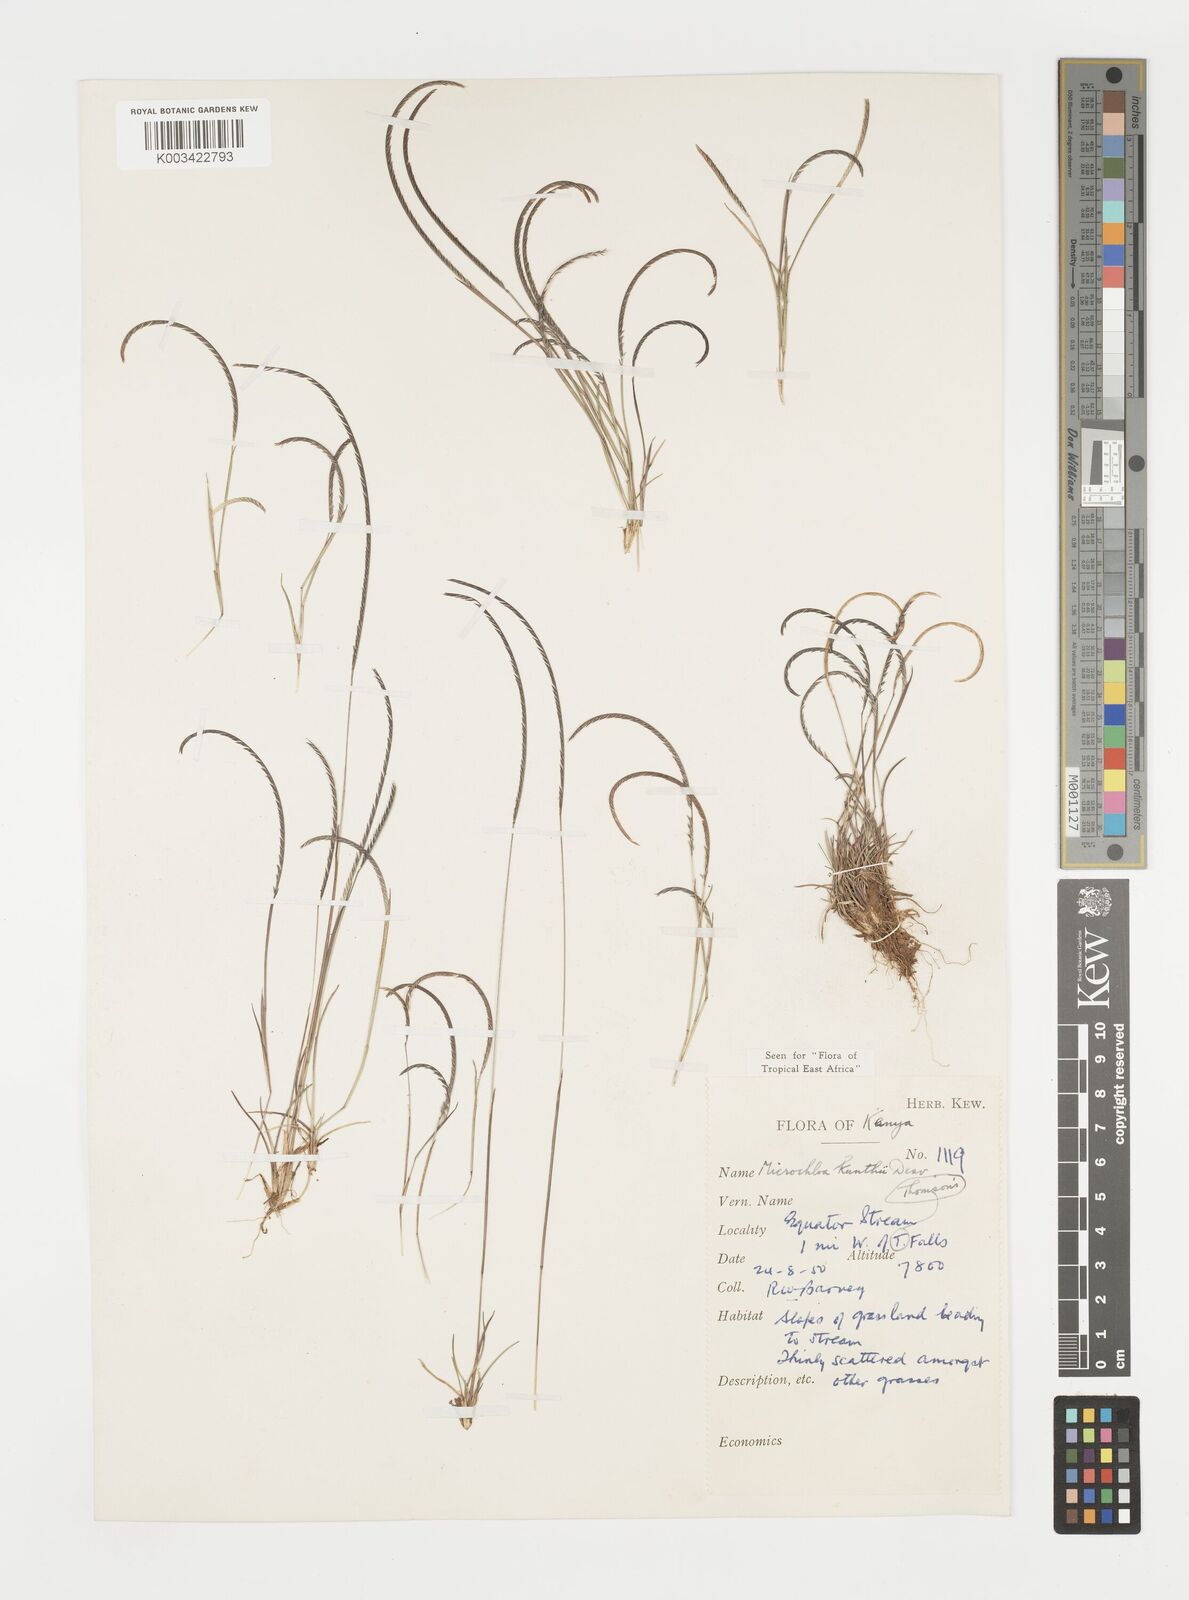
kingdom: Plantae
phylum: Tracheophyta
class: Liliopsida
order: Poales
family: Poaceae
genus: Microchloa
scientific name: Microchloa kunthii
